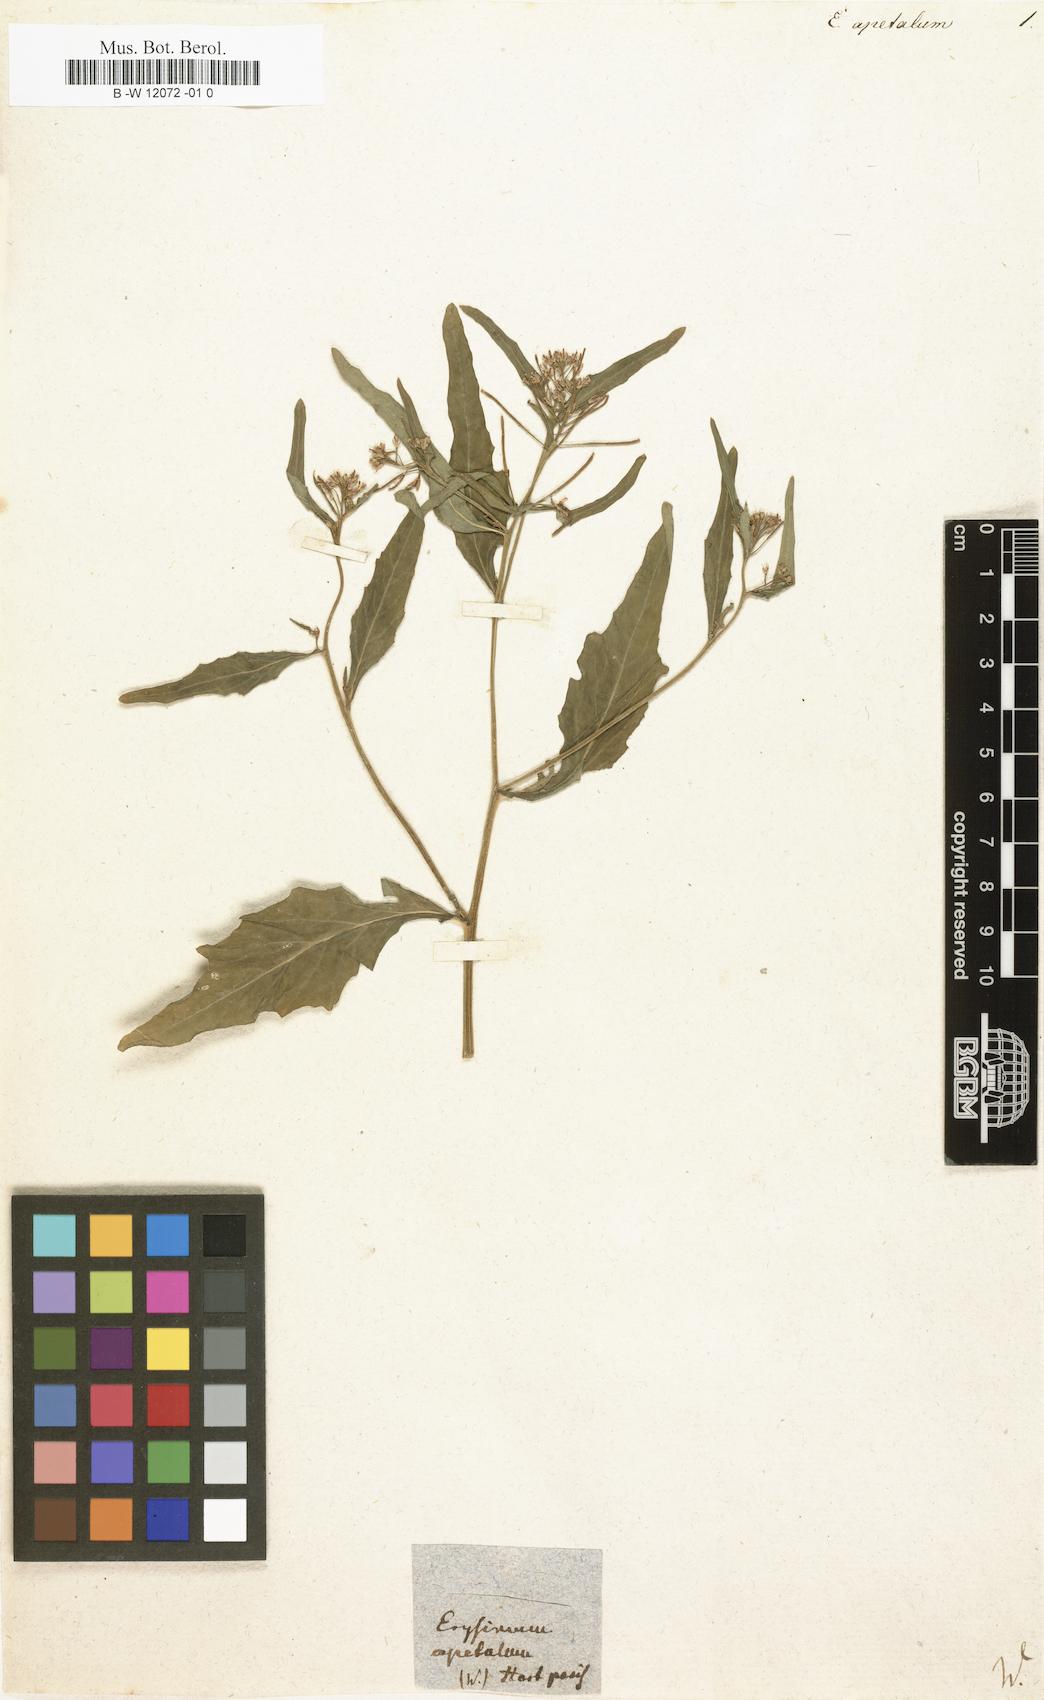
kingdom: Plantae
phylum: Tracheophyta
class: Magnoliopsida
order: Brassicales
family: Brassicaceae
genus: Erysimum
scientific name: Erysimum
